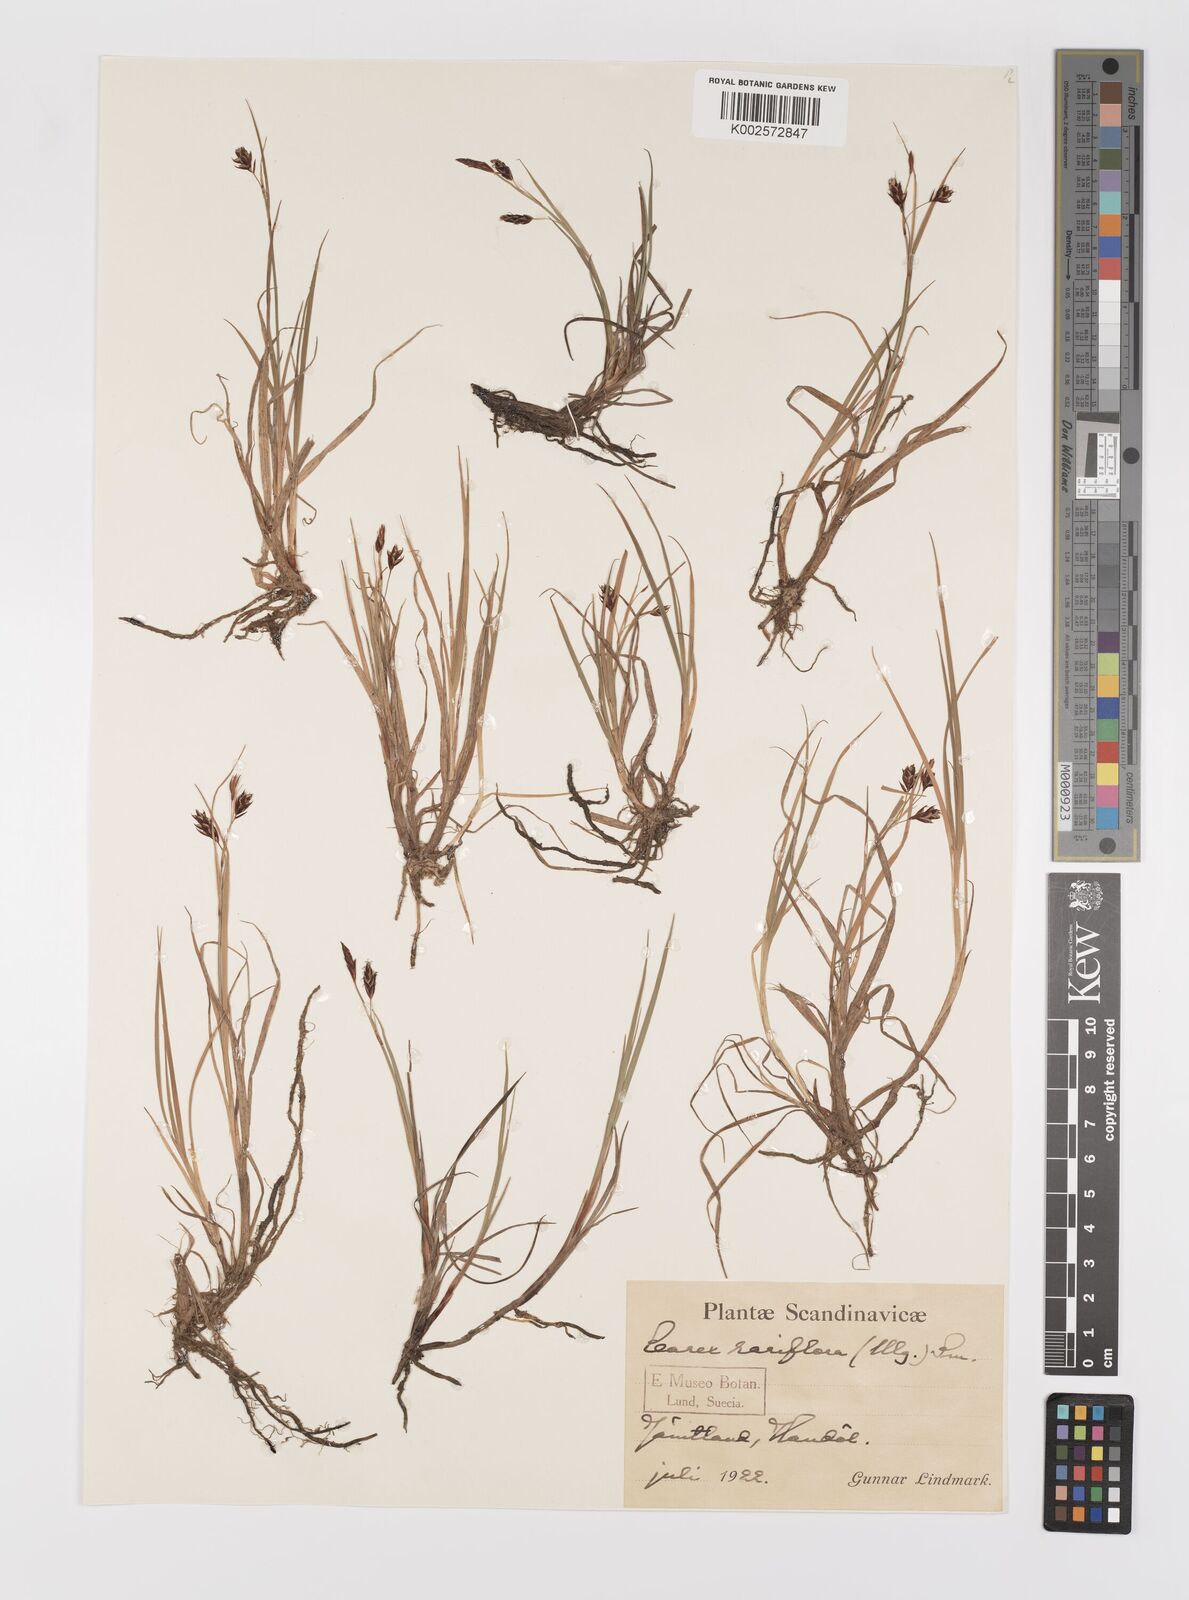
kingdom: Plantae
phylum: Tracheophyta
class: Liliopsida
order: Poales
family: Cyperaceae
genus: Carex
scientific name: Carex rariflora
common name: Loose-flowered alpine sedge
